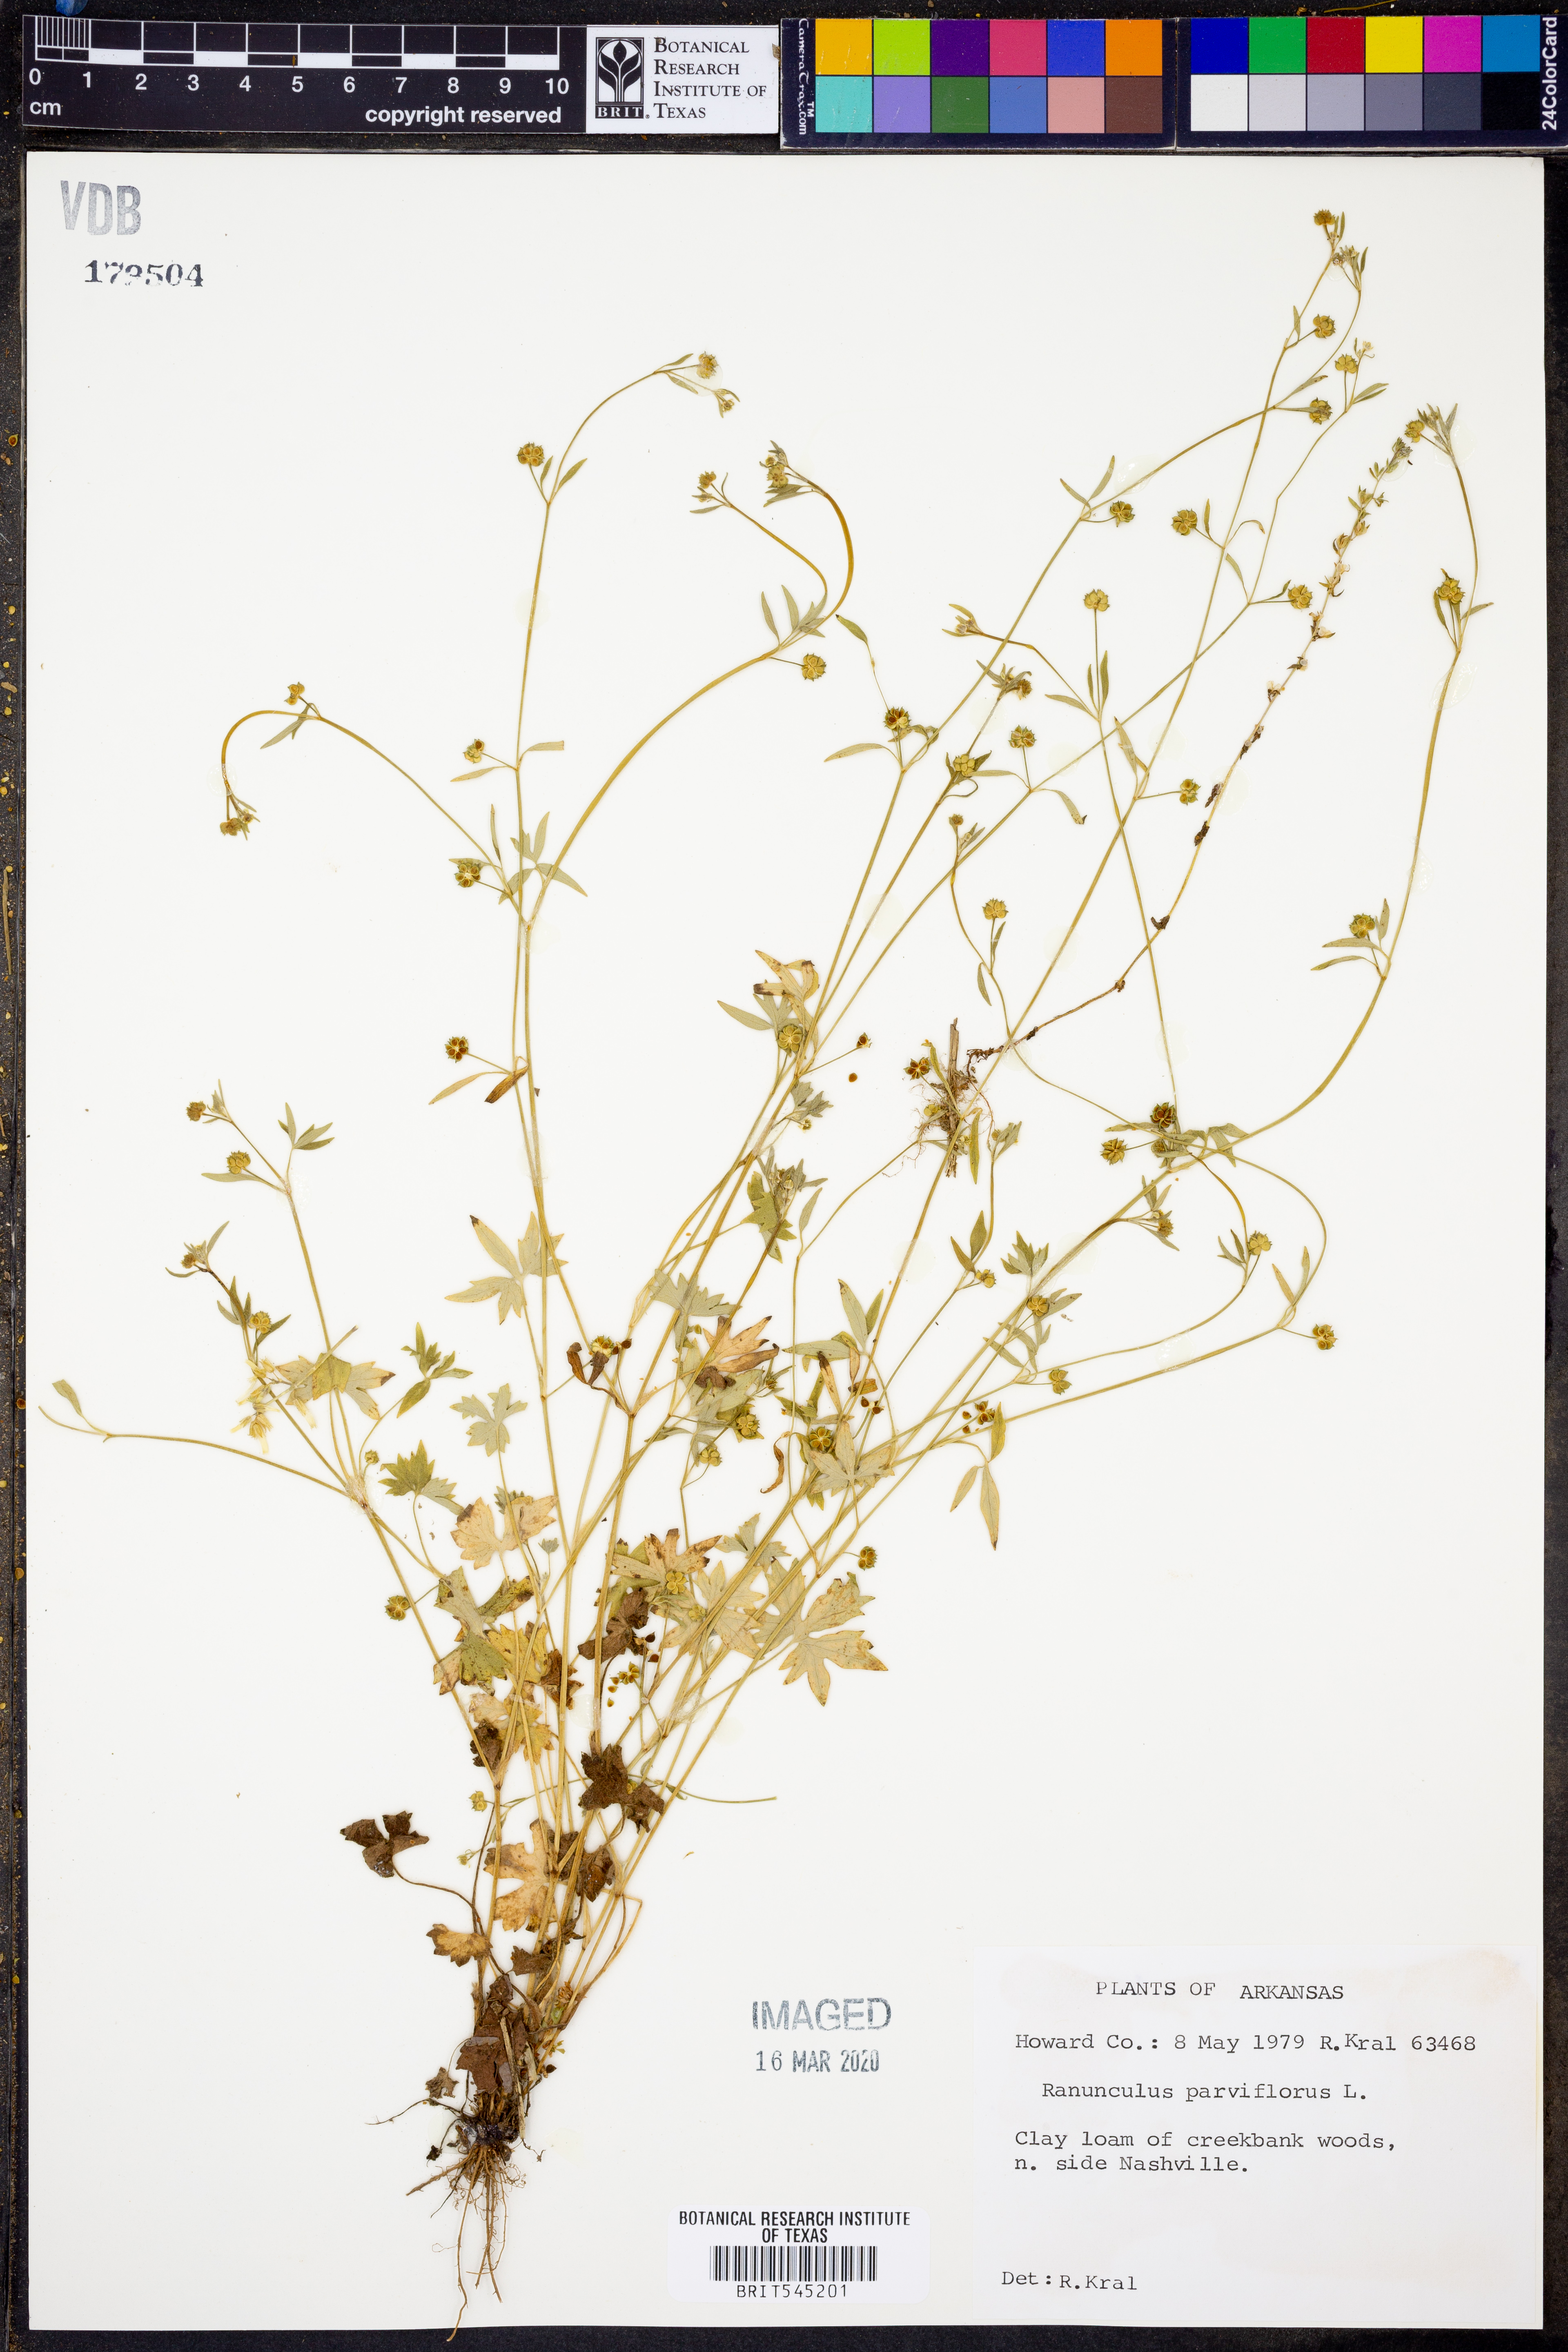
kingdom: Plantae
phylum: Tracheophyta
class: Magnoliopsida
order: Ranunculales
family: Ranunculaceae
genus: Ranunculus
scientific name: Ranunculus parviflorus
